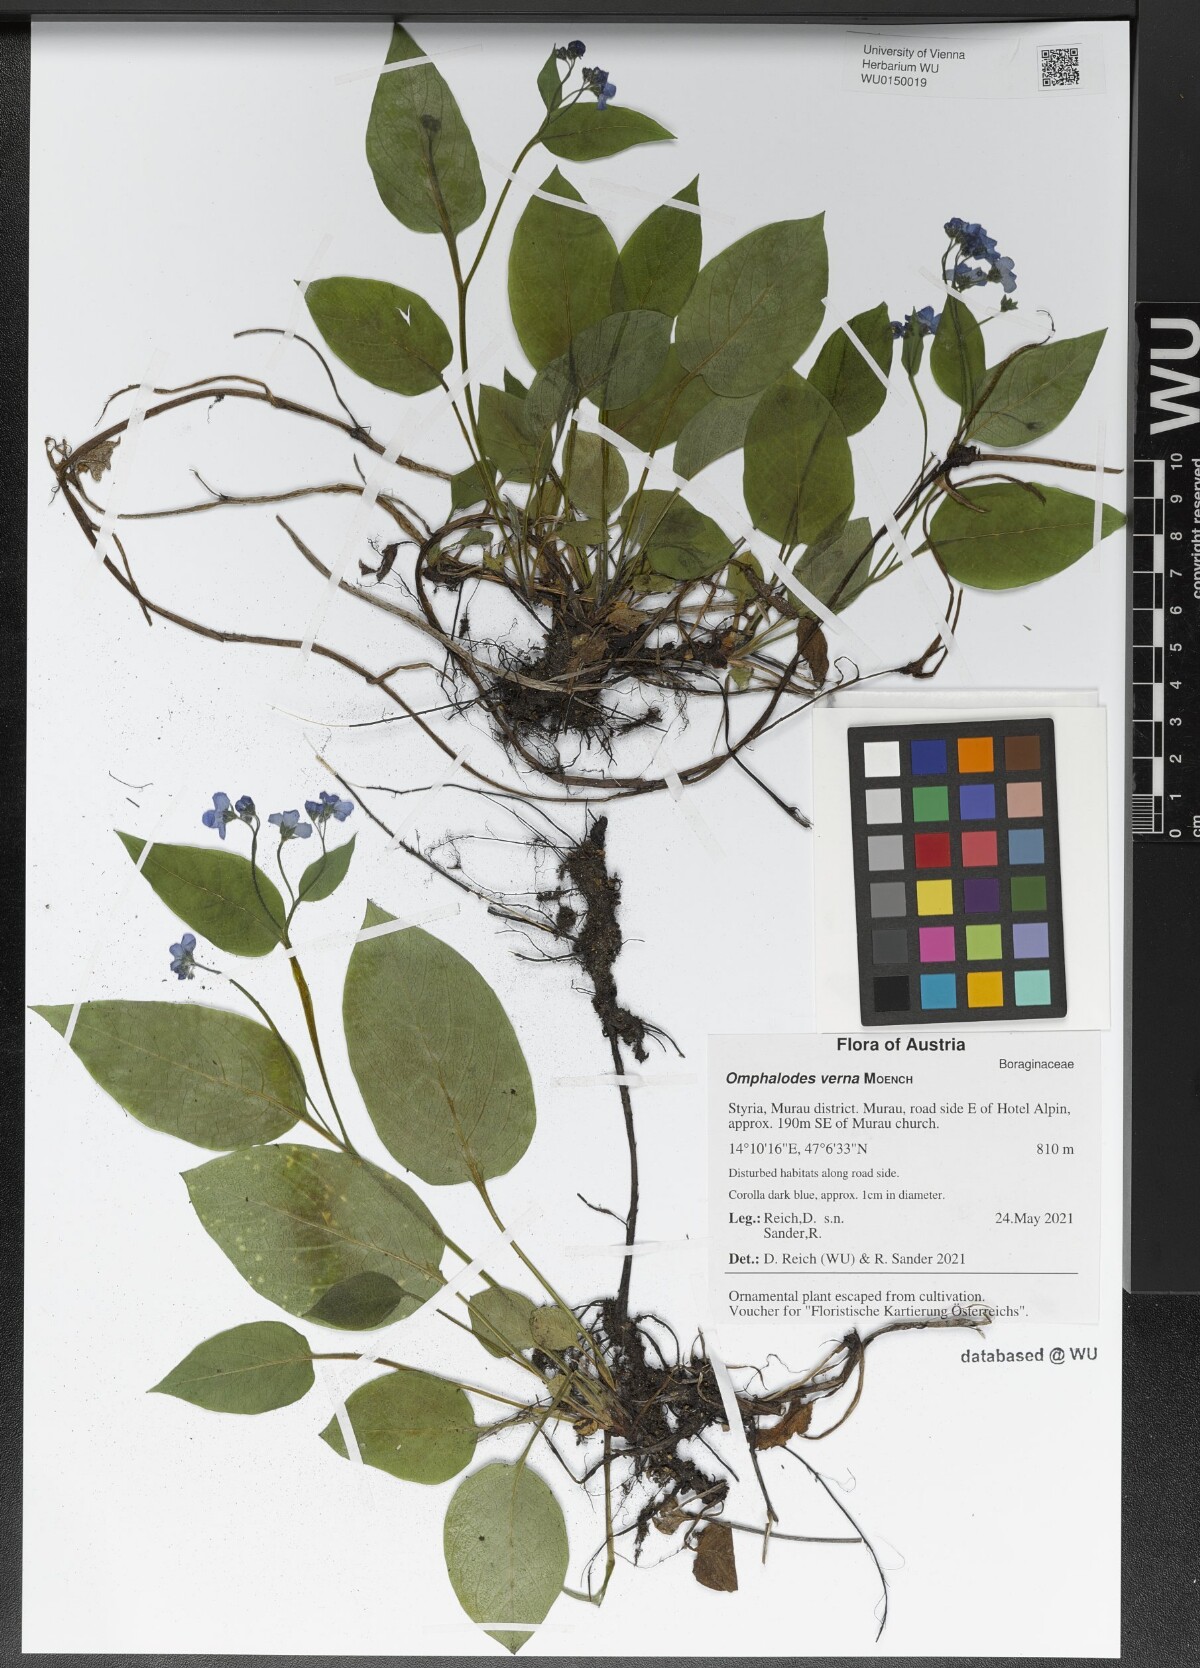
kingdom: Plantae
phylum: Tracheophyta
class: Magnoliopsida
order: Boraginales
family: Boraginaceae
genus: Omphalodes
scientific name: Omphalodes verna
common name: Blue-eyed-mary
